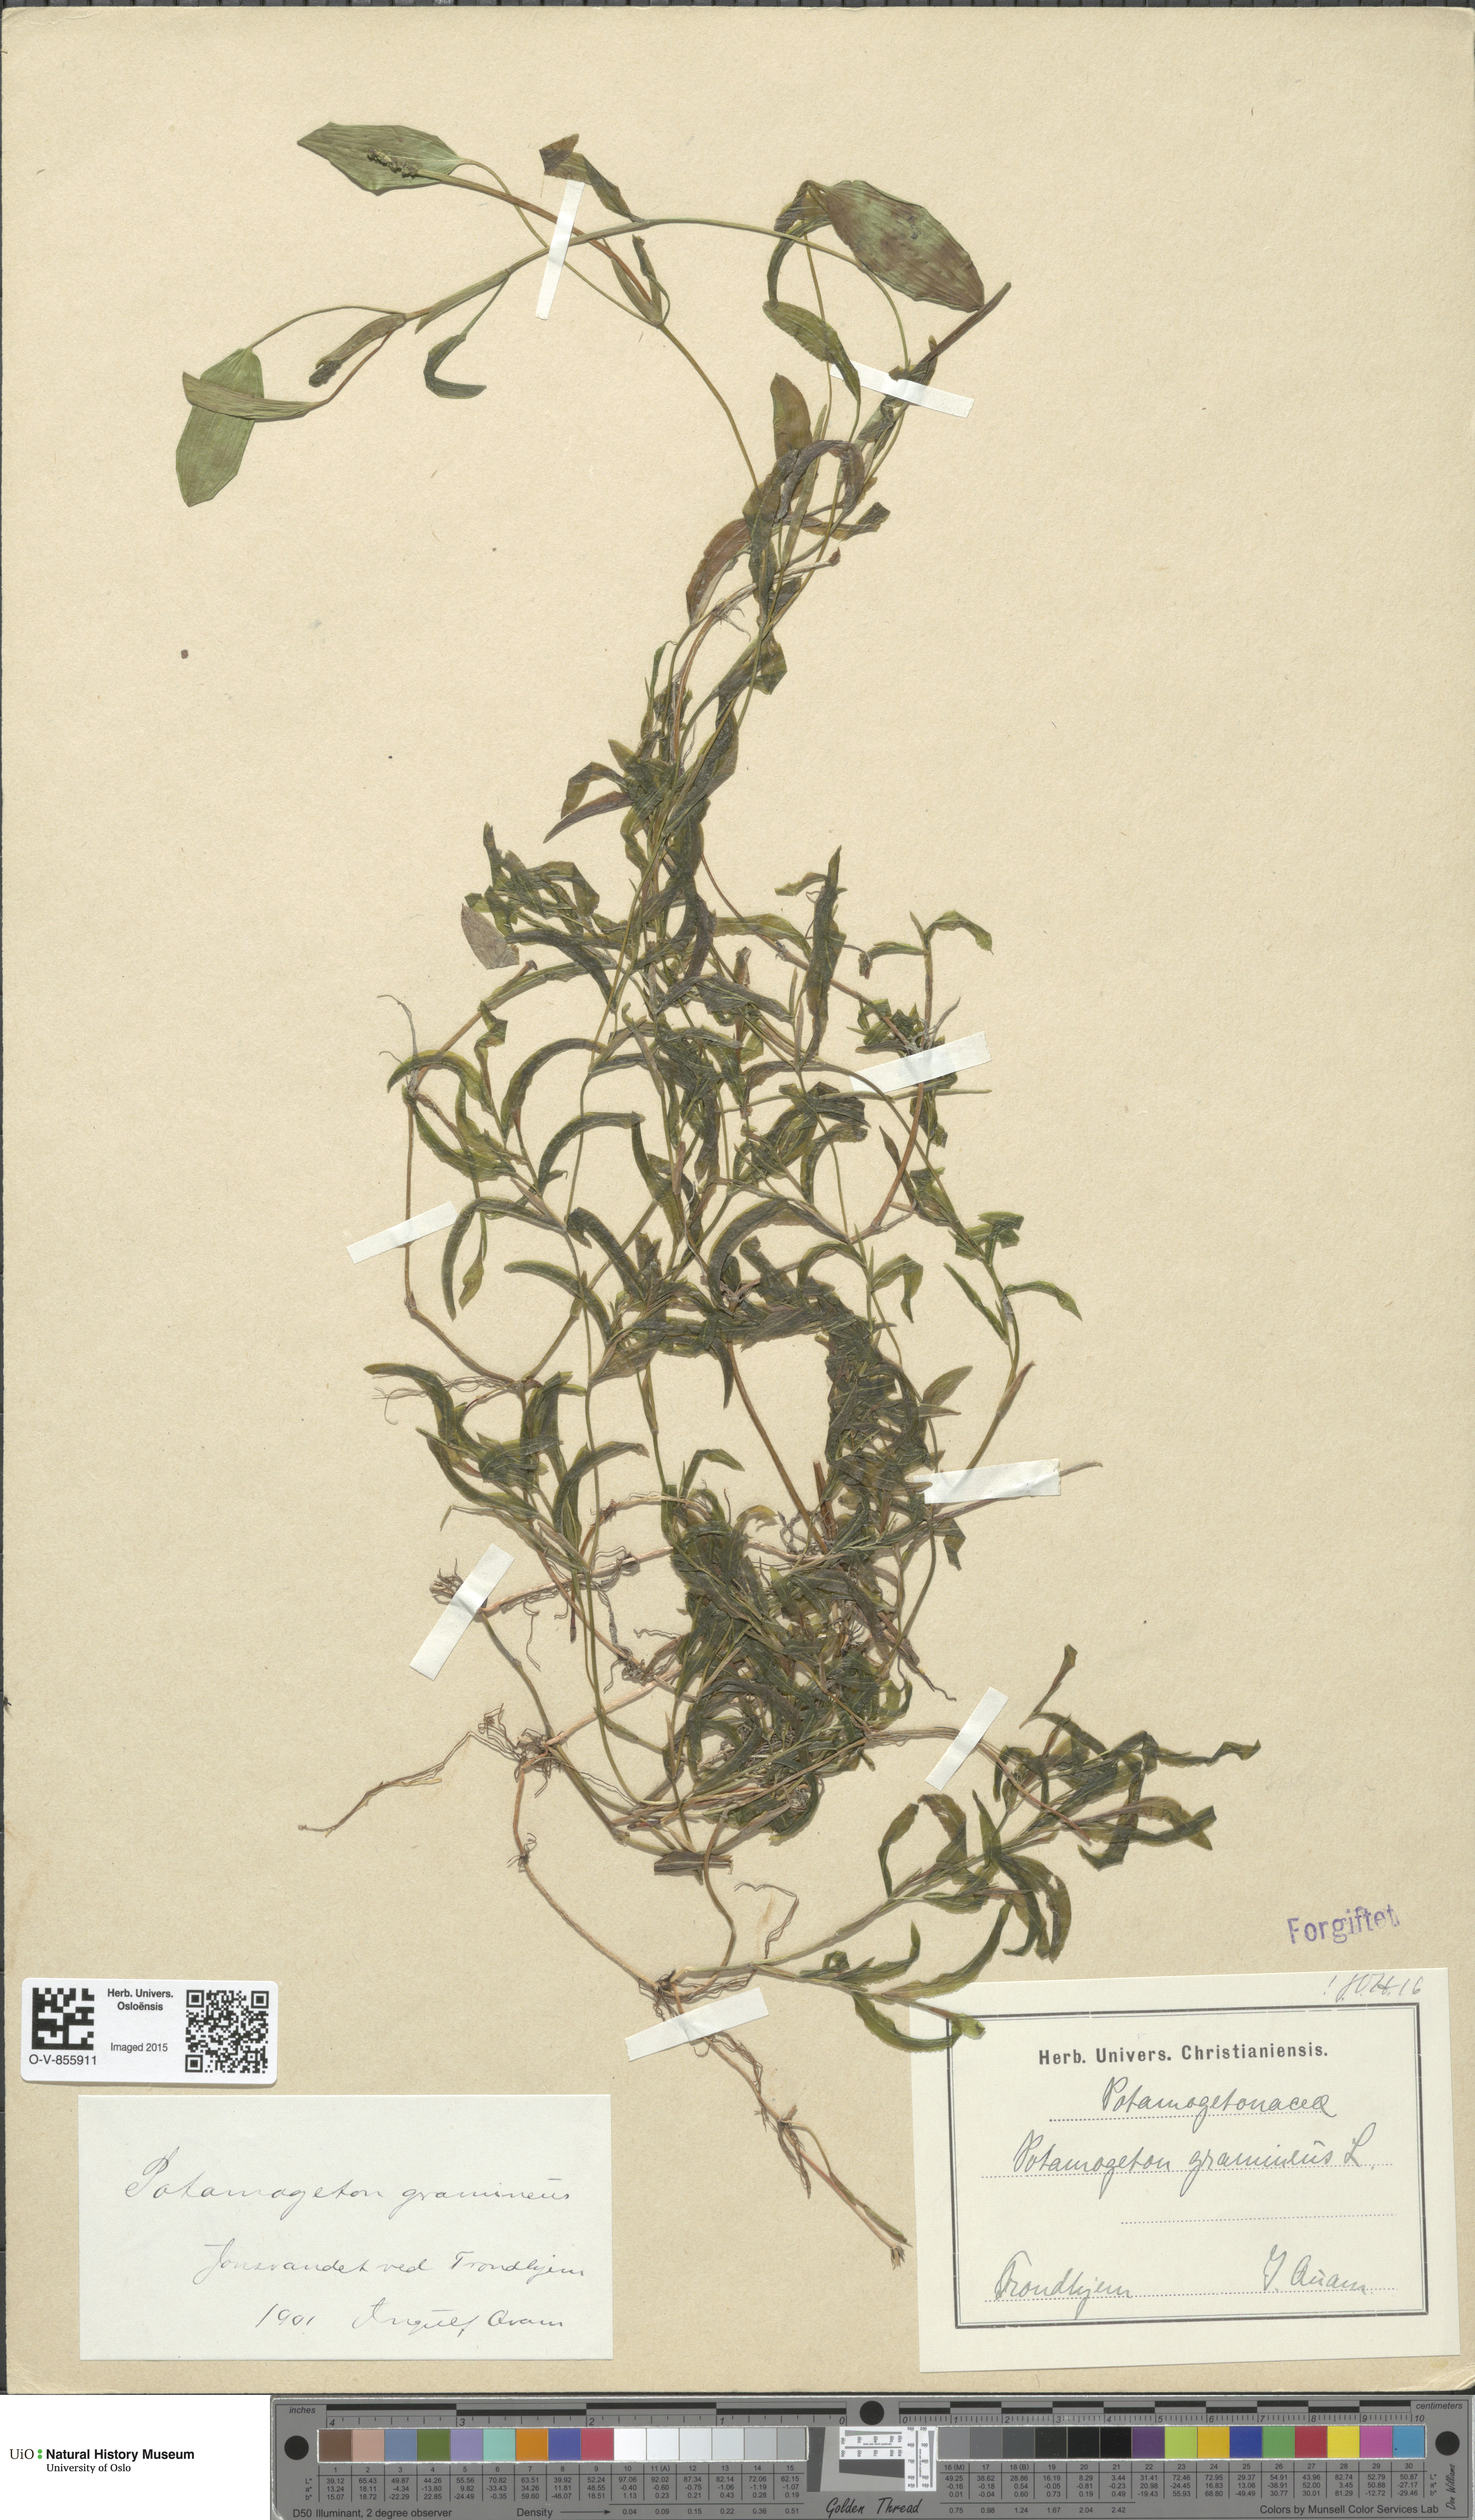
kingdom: Plantae
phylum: Tracheophyta
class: Liliopsida
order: Alismatales
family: Potamogetonaceae
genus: Potamogeton
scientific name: Potamogeton gramineus
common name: Various-leaved pondweed
